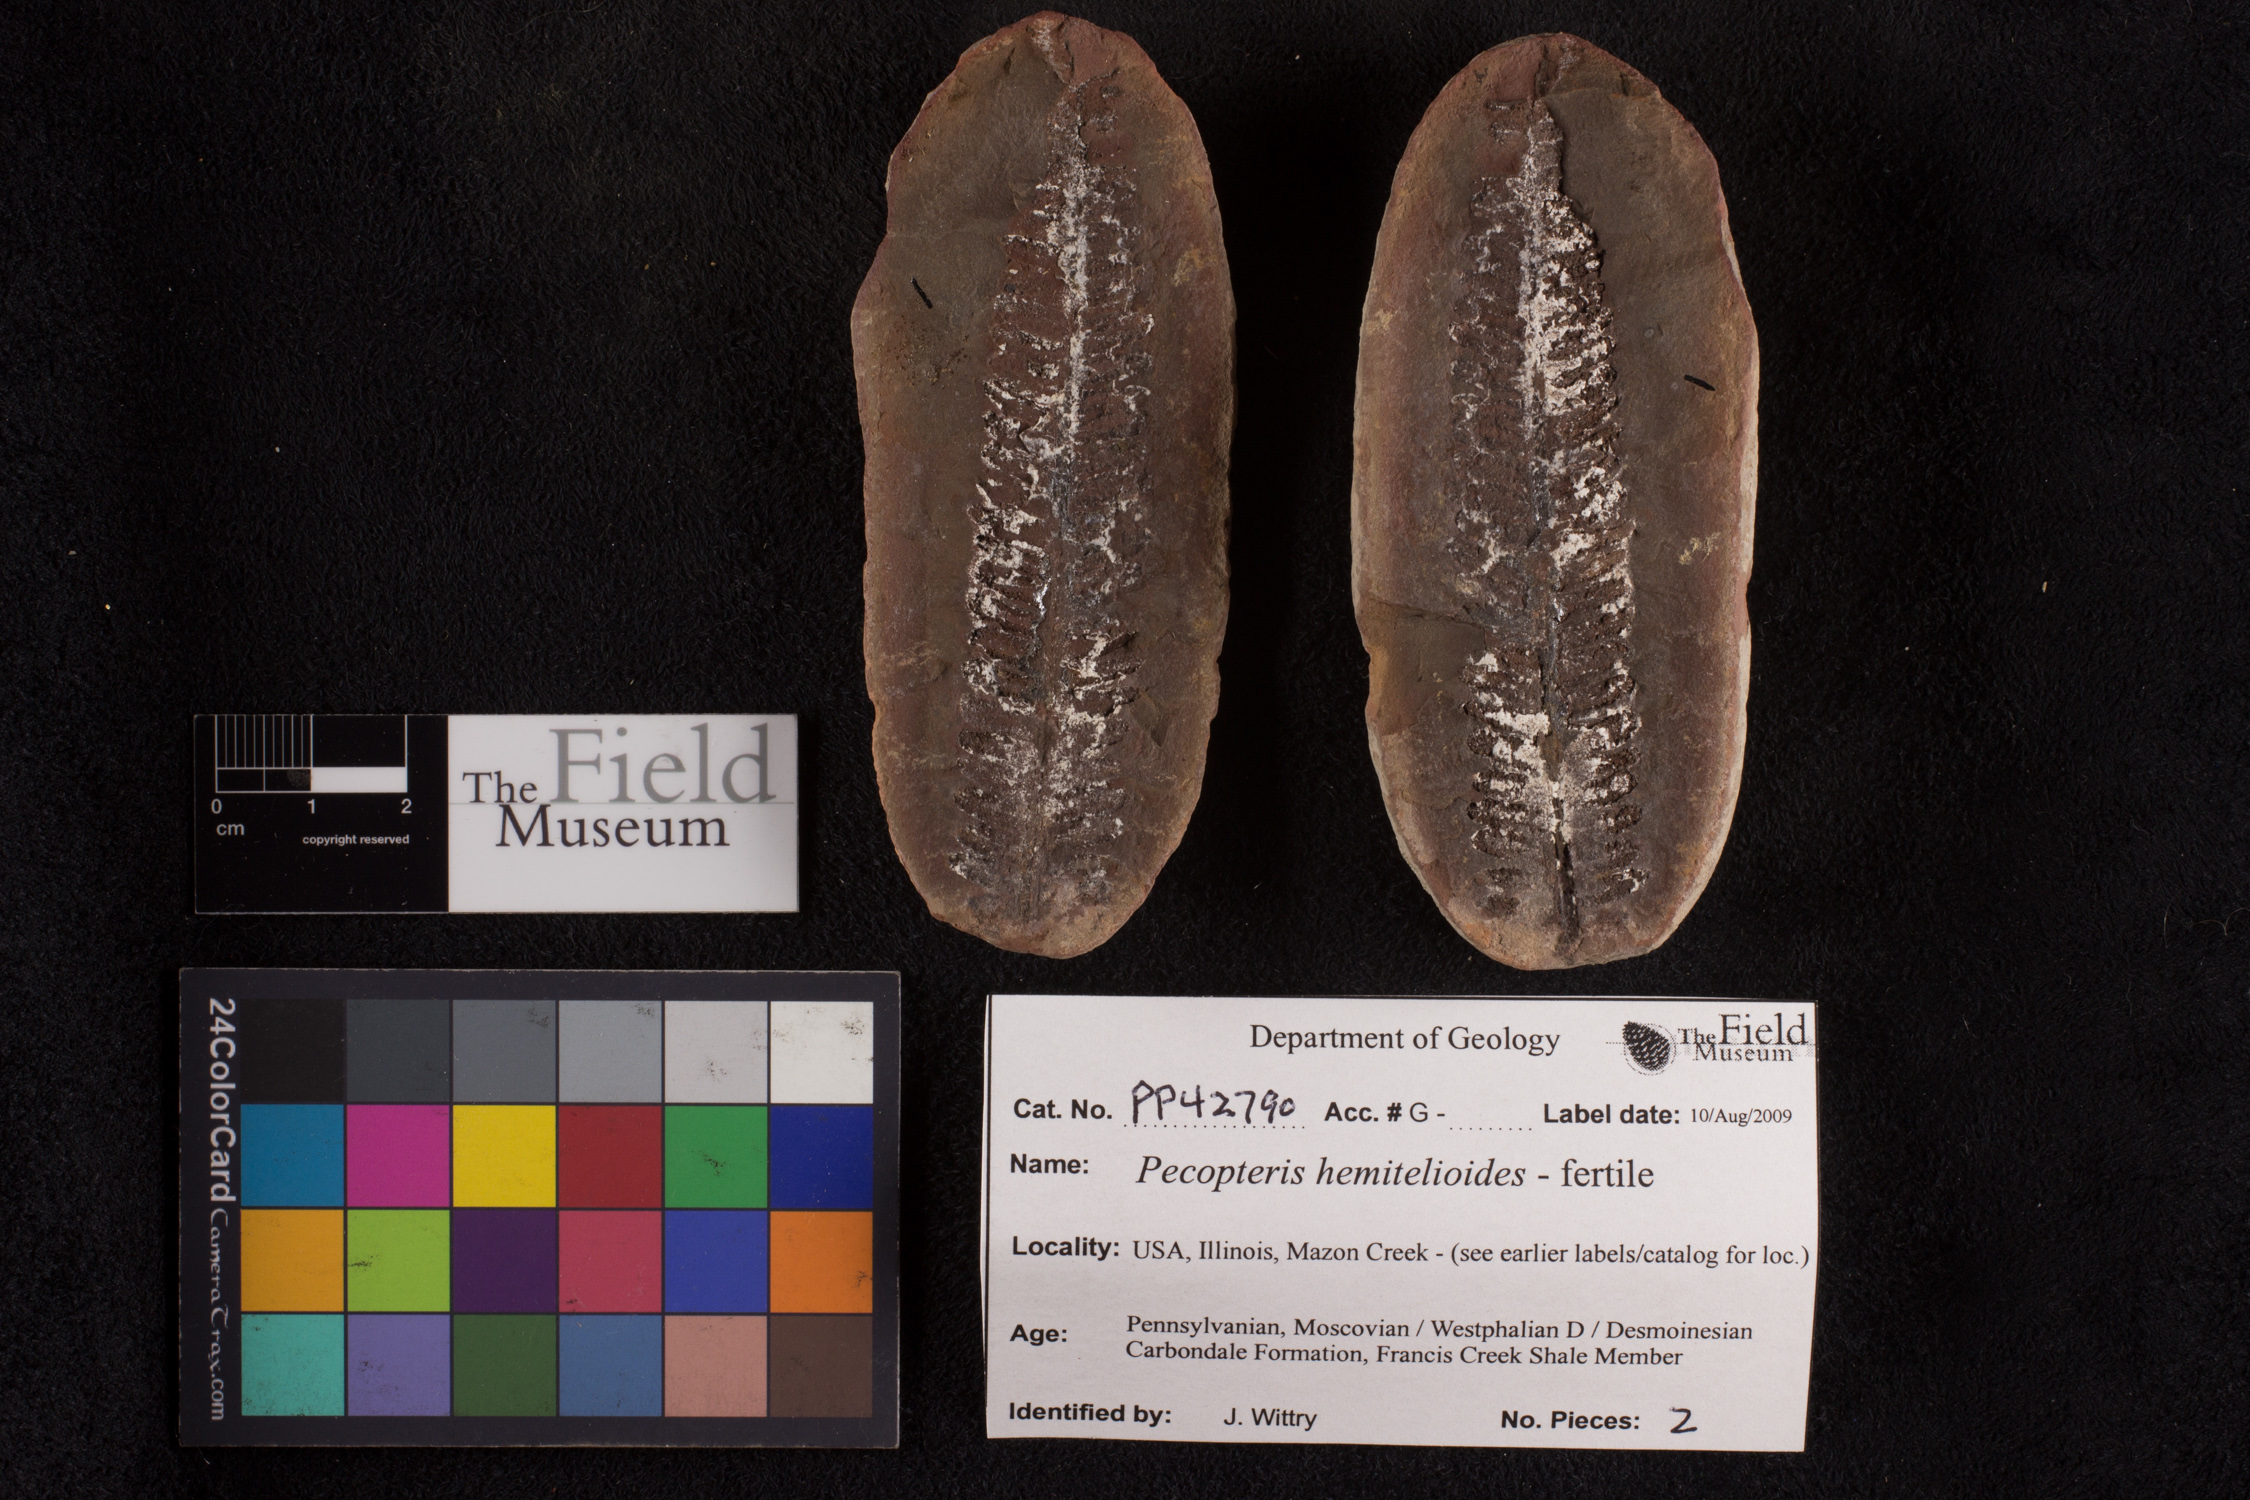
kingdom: Plantae
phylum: Tracheophyta
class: Polypodiopsida
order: Marattiales
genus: Cyathocarpus
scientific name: Cyathocarpus
